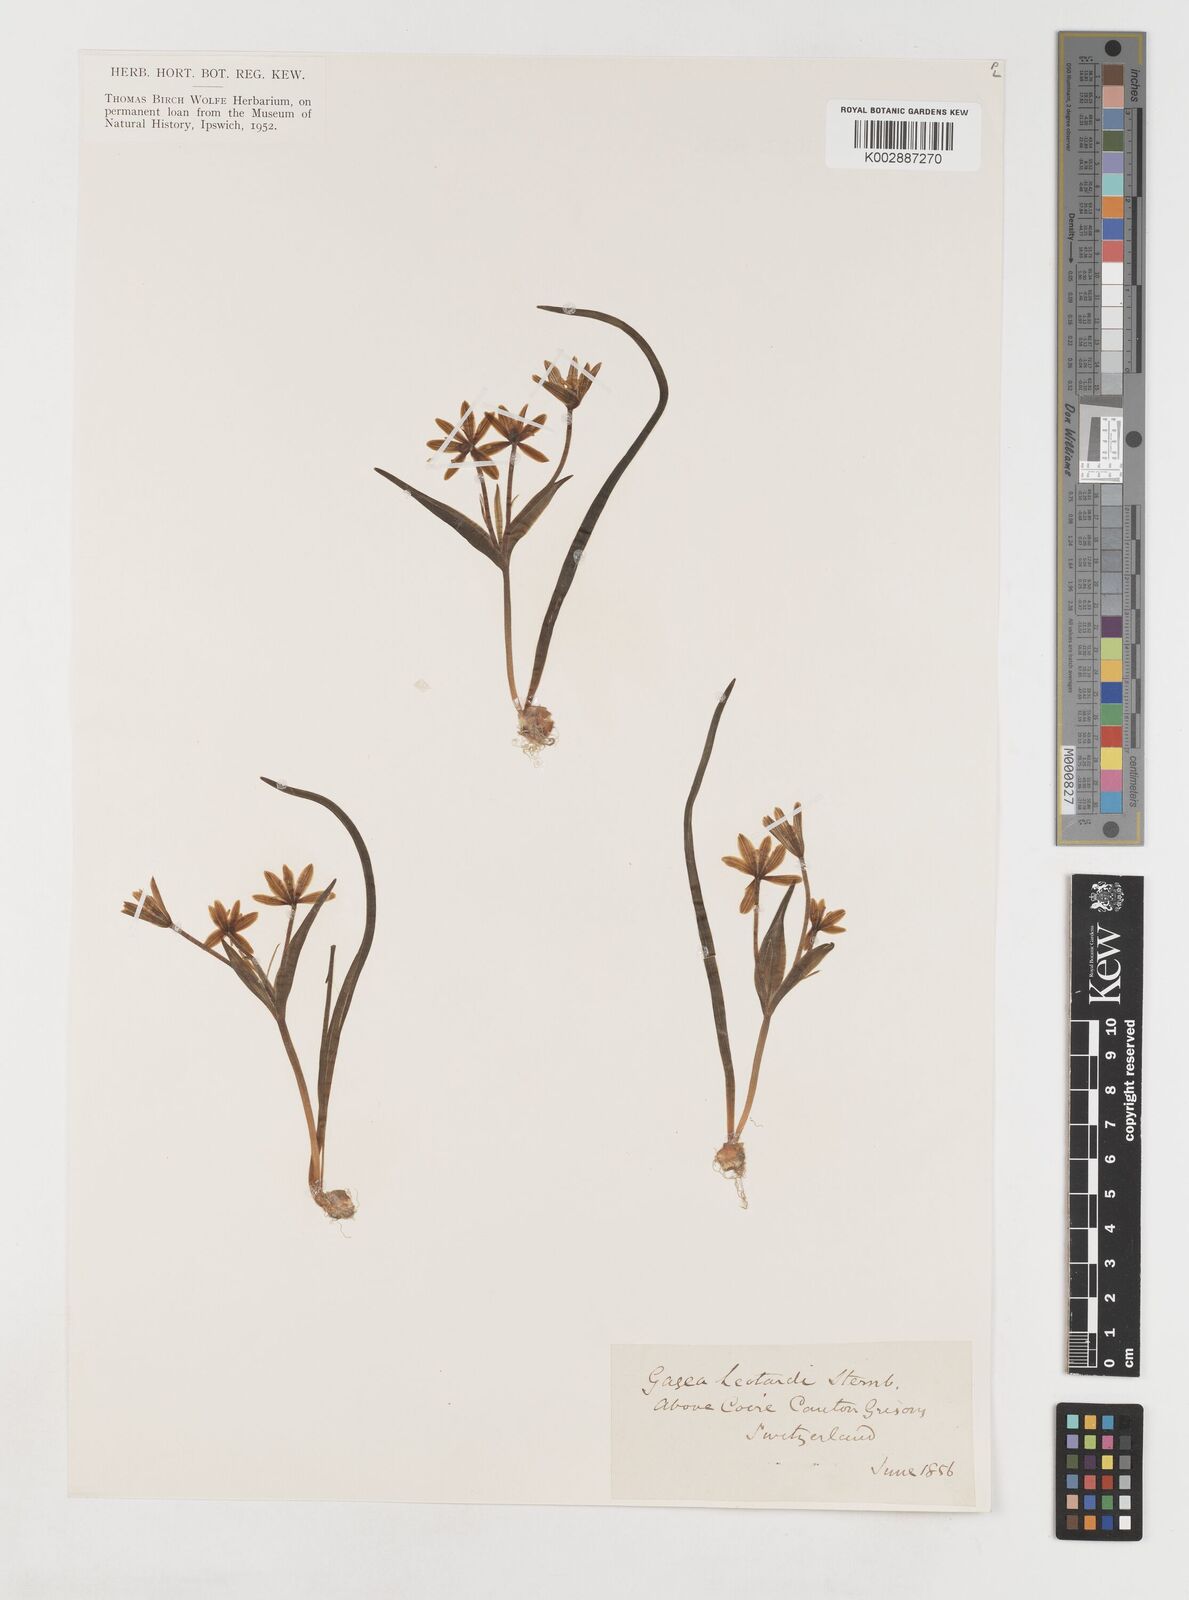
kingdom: Plantae
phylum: Tracheophyta
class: Liliopsida
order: Liliales
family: Liliaceae
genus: Gagea
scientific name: Gagea bohemica
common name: Early star-of-bethlehem
